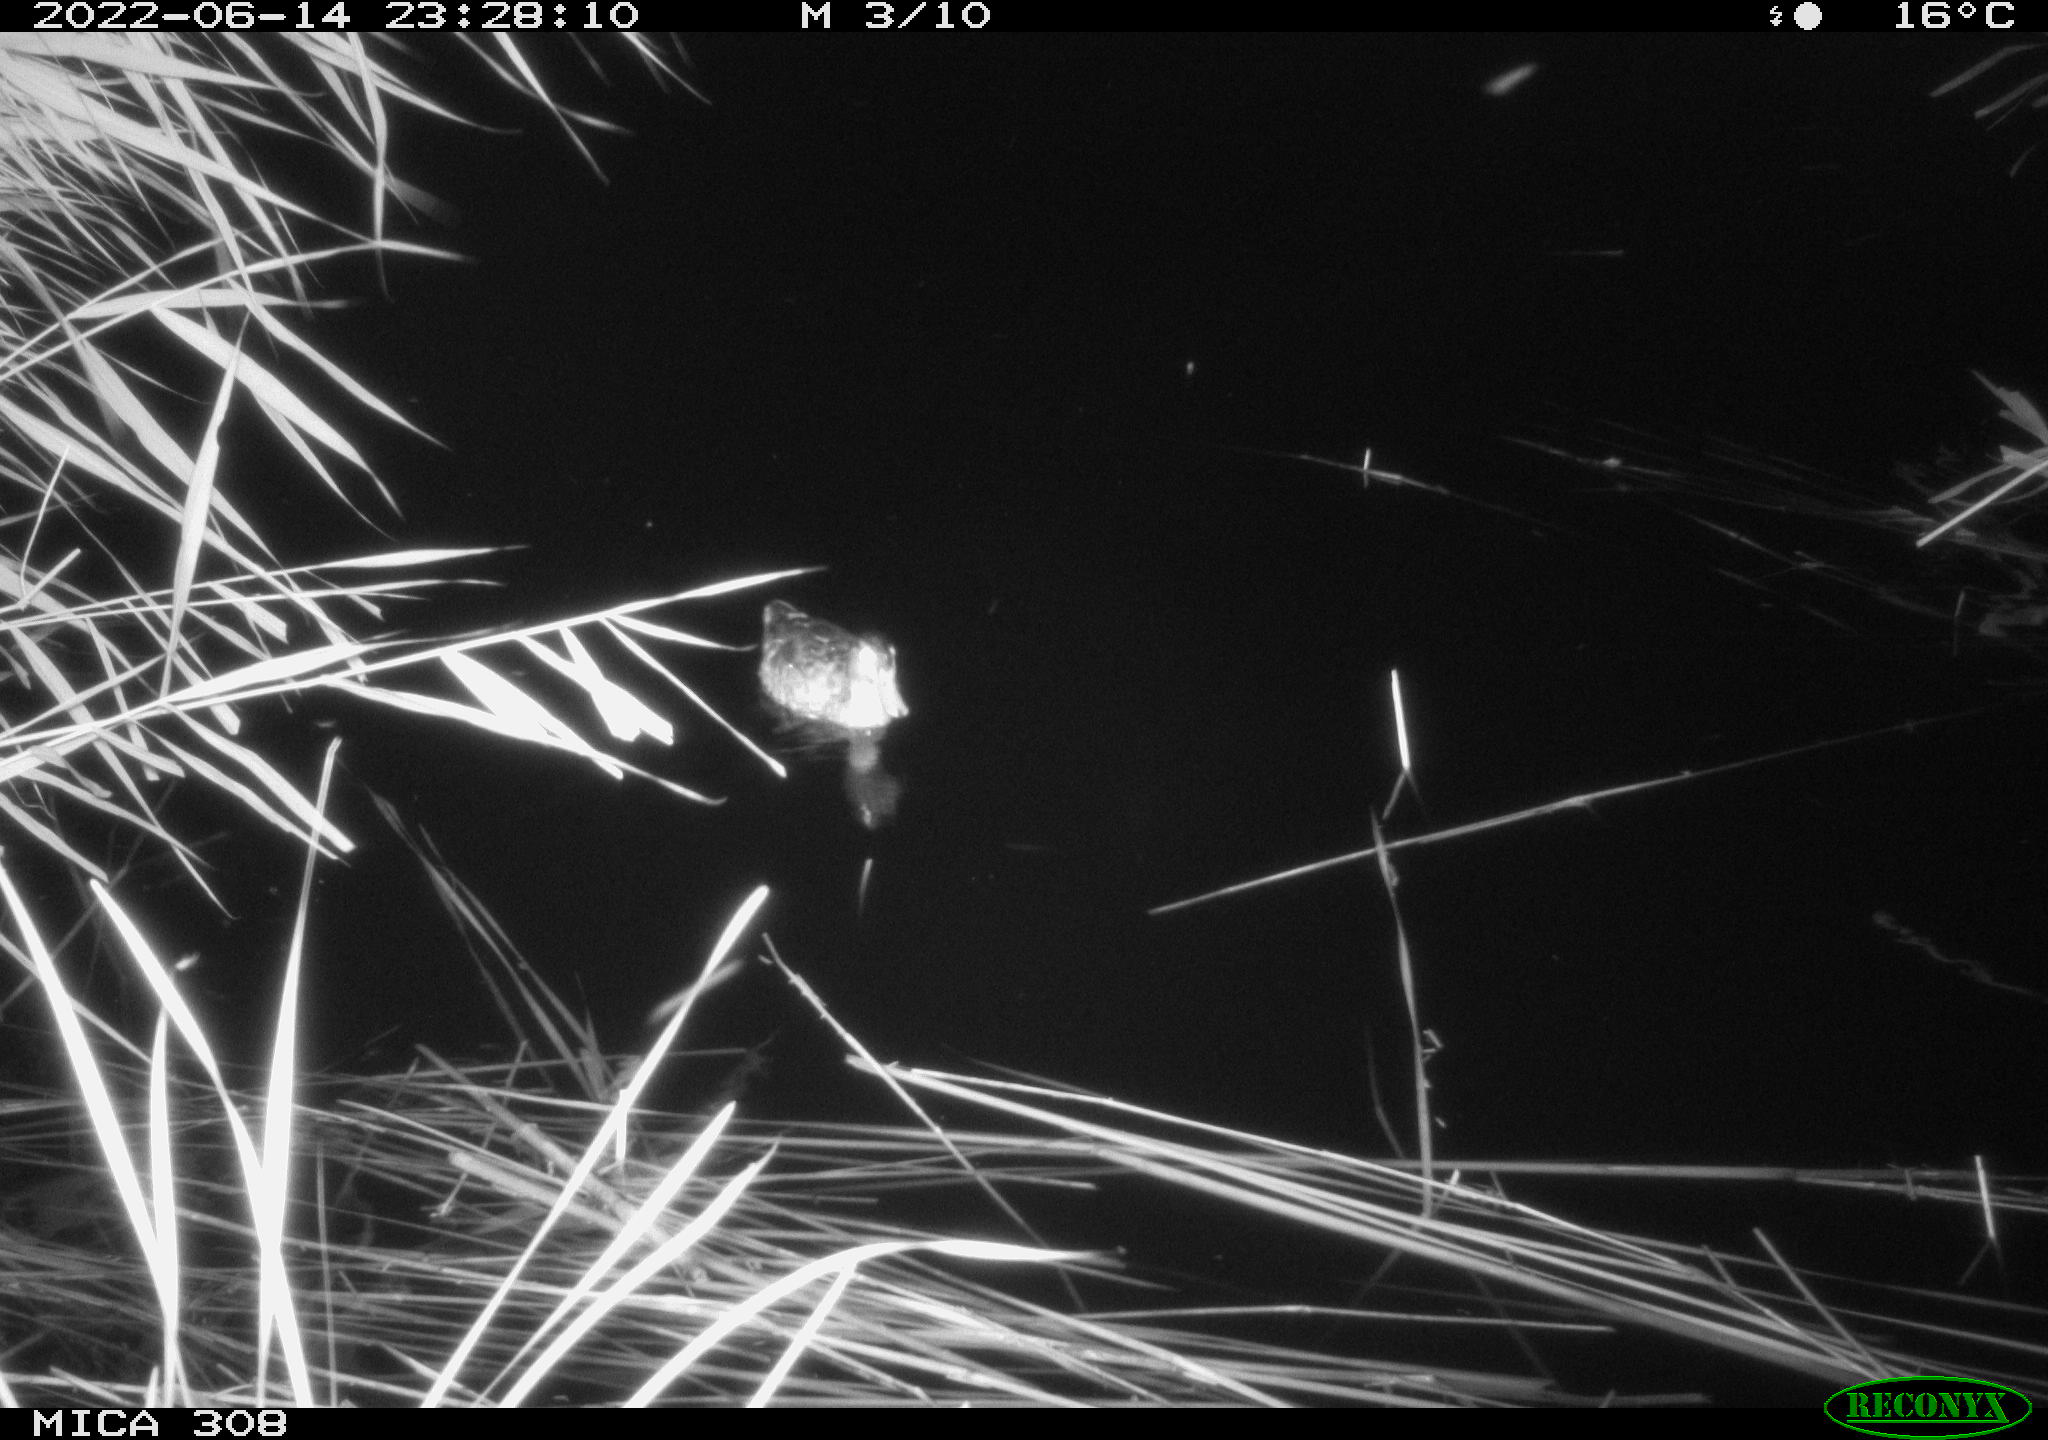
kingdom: Animalia
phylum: Chordata
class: Aves
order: Anseriformes
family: Anatidae
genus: Anas
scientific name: Anas platyrhynchos
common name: Mallard
